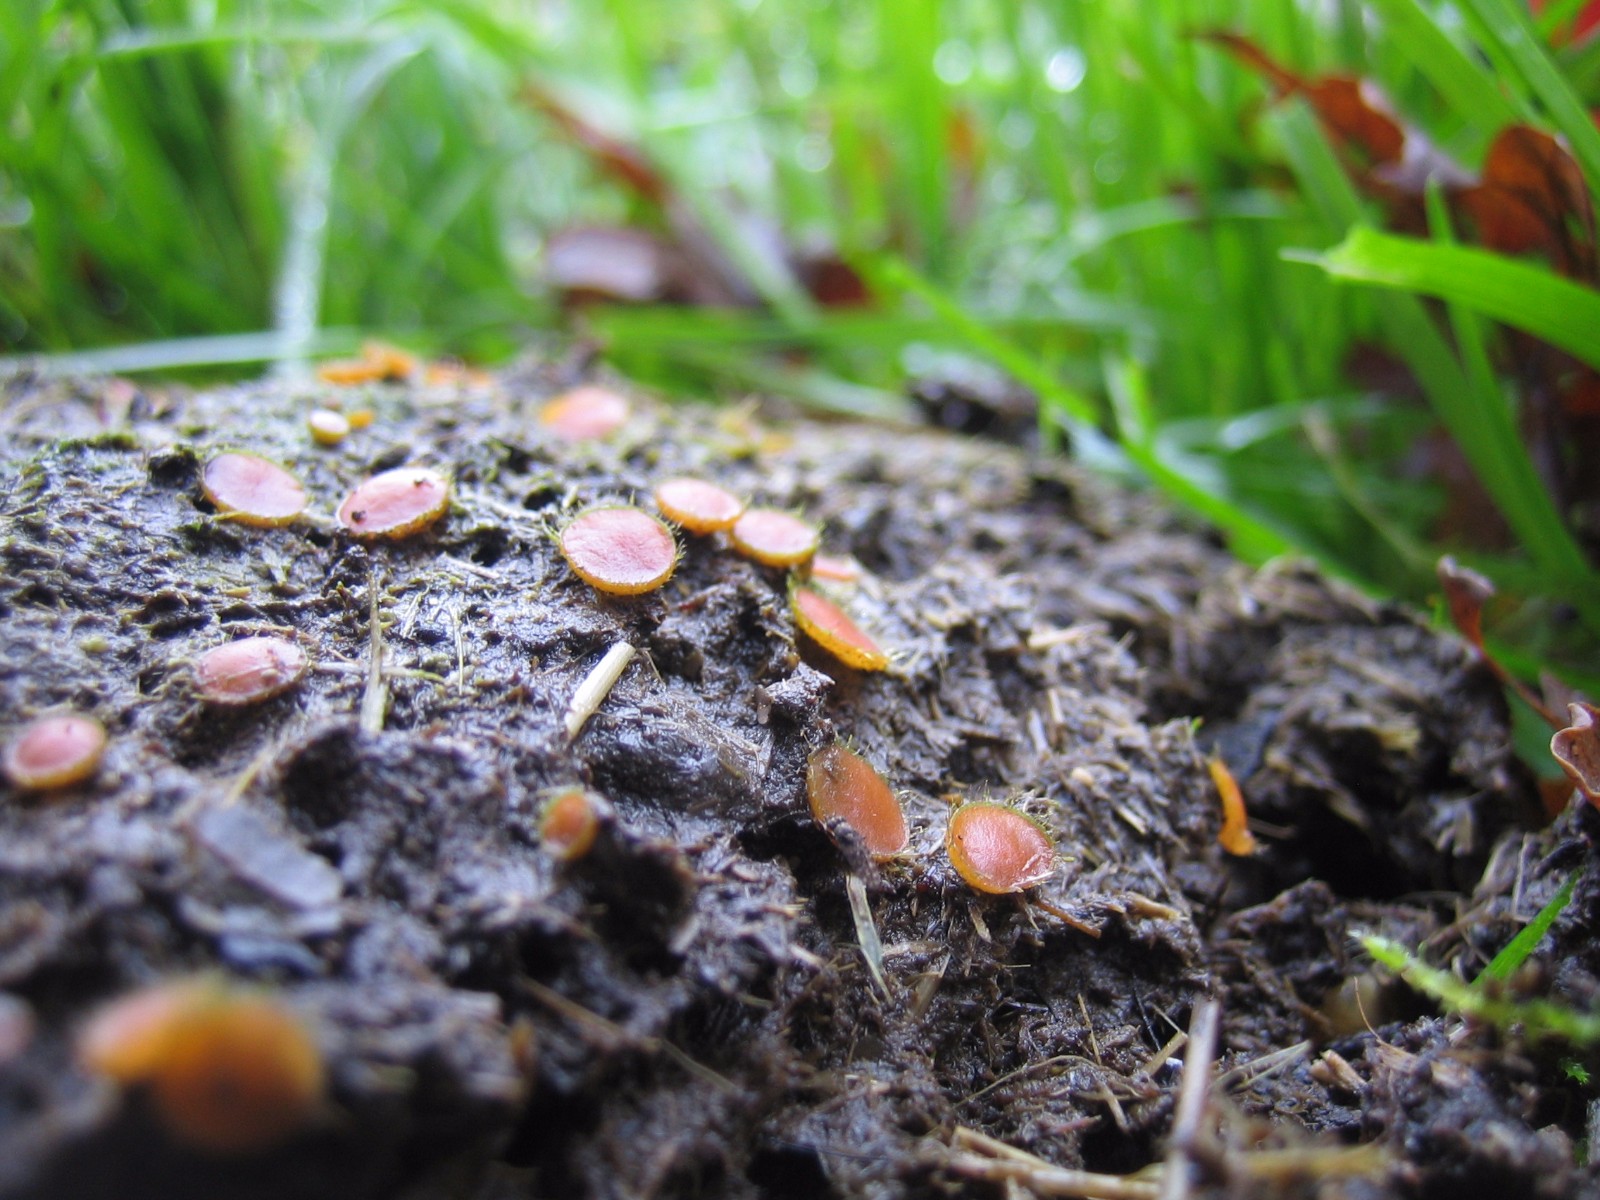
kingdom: Fungi
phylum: Ascomycota
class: Pezizomycetes
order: Pezizales
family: Pyronemataceae
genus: Cheilymenia
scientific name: Cheilymenia
